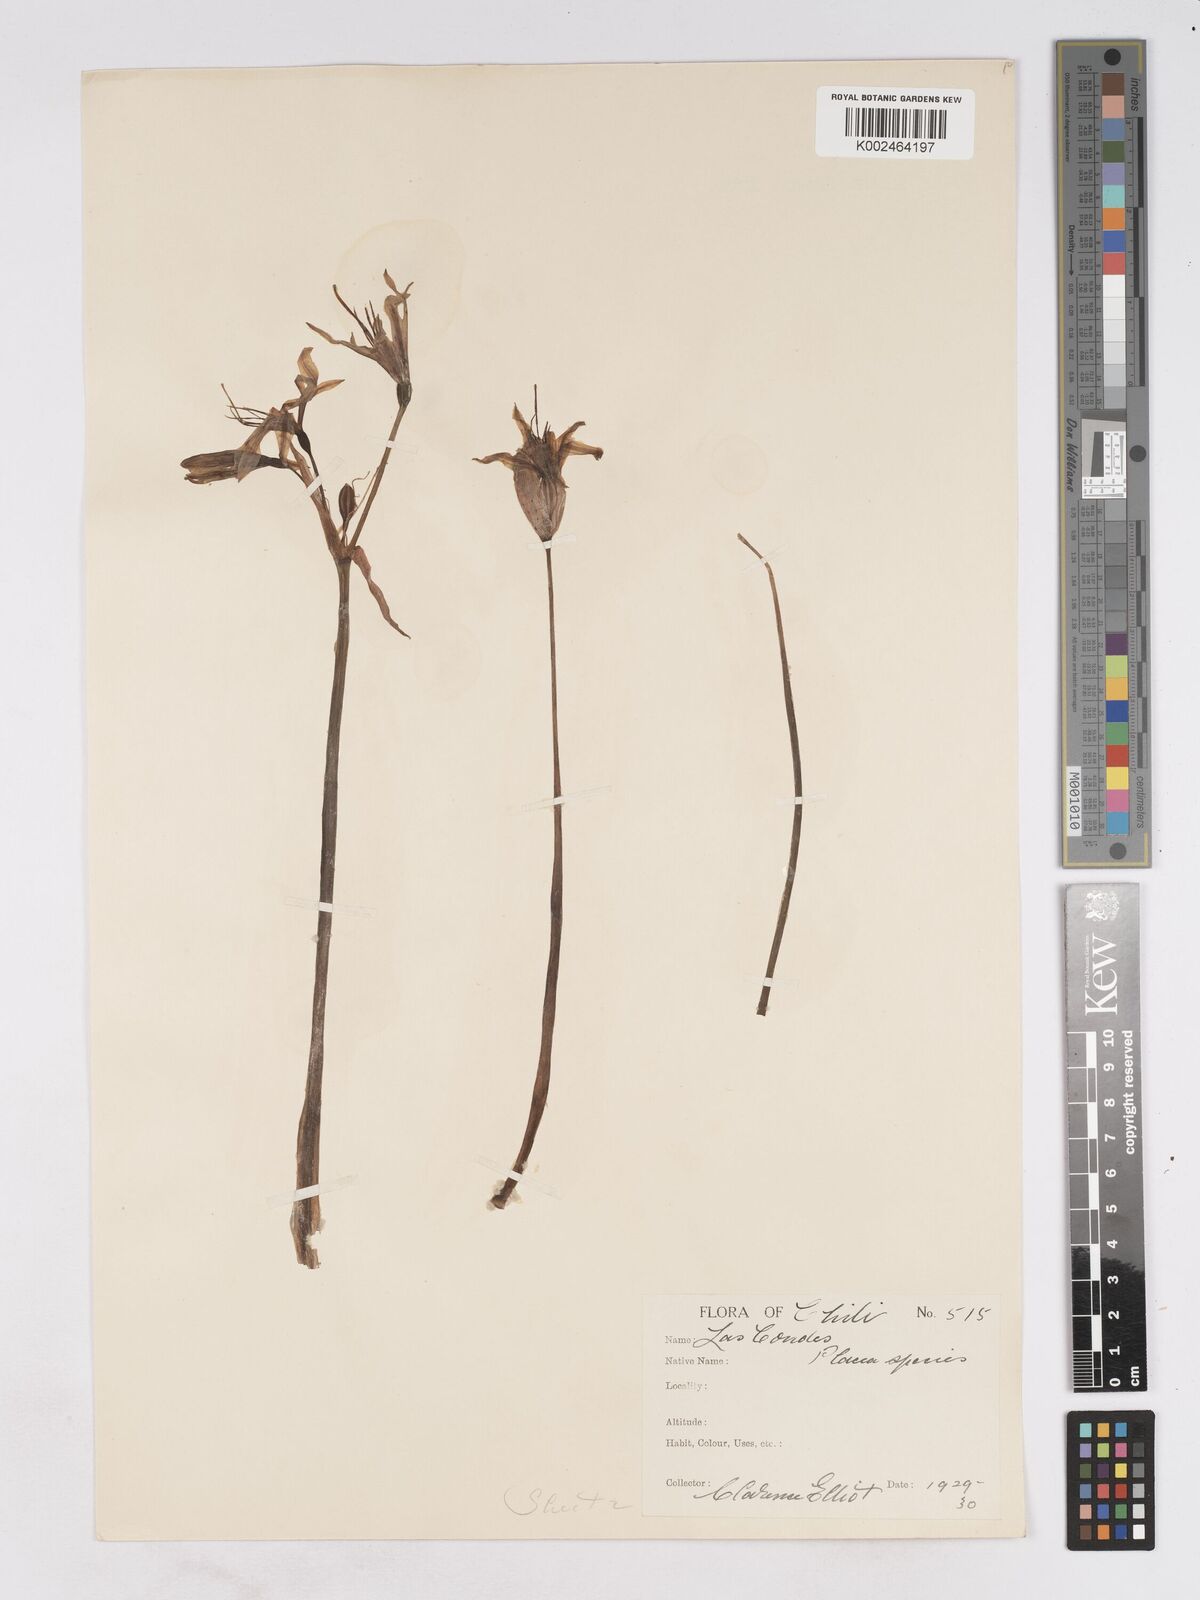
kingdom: Plantae
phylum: Tracheophyta
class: Liliopsida
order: Asparagales
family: Amaryllidaceae
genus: Phycella
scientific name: Phycella ornata
